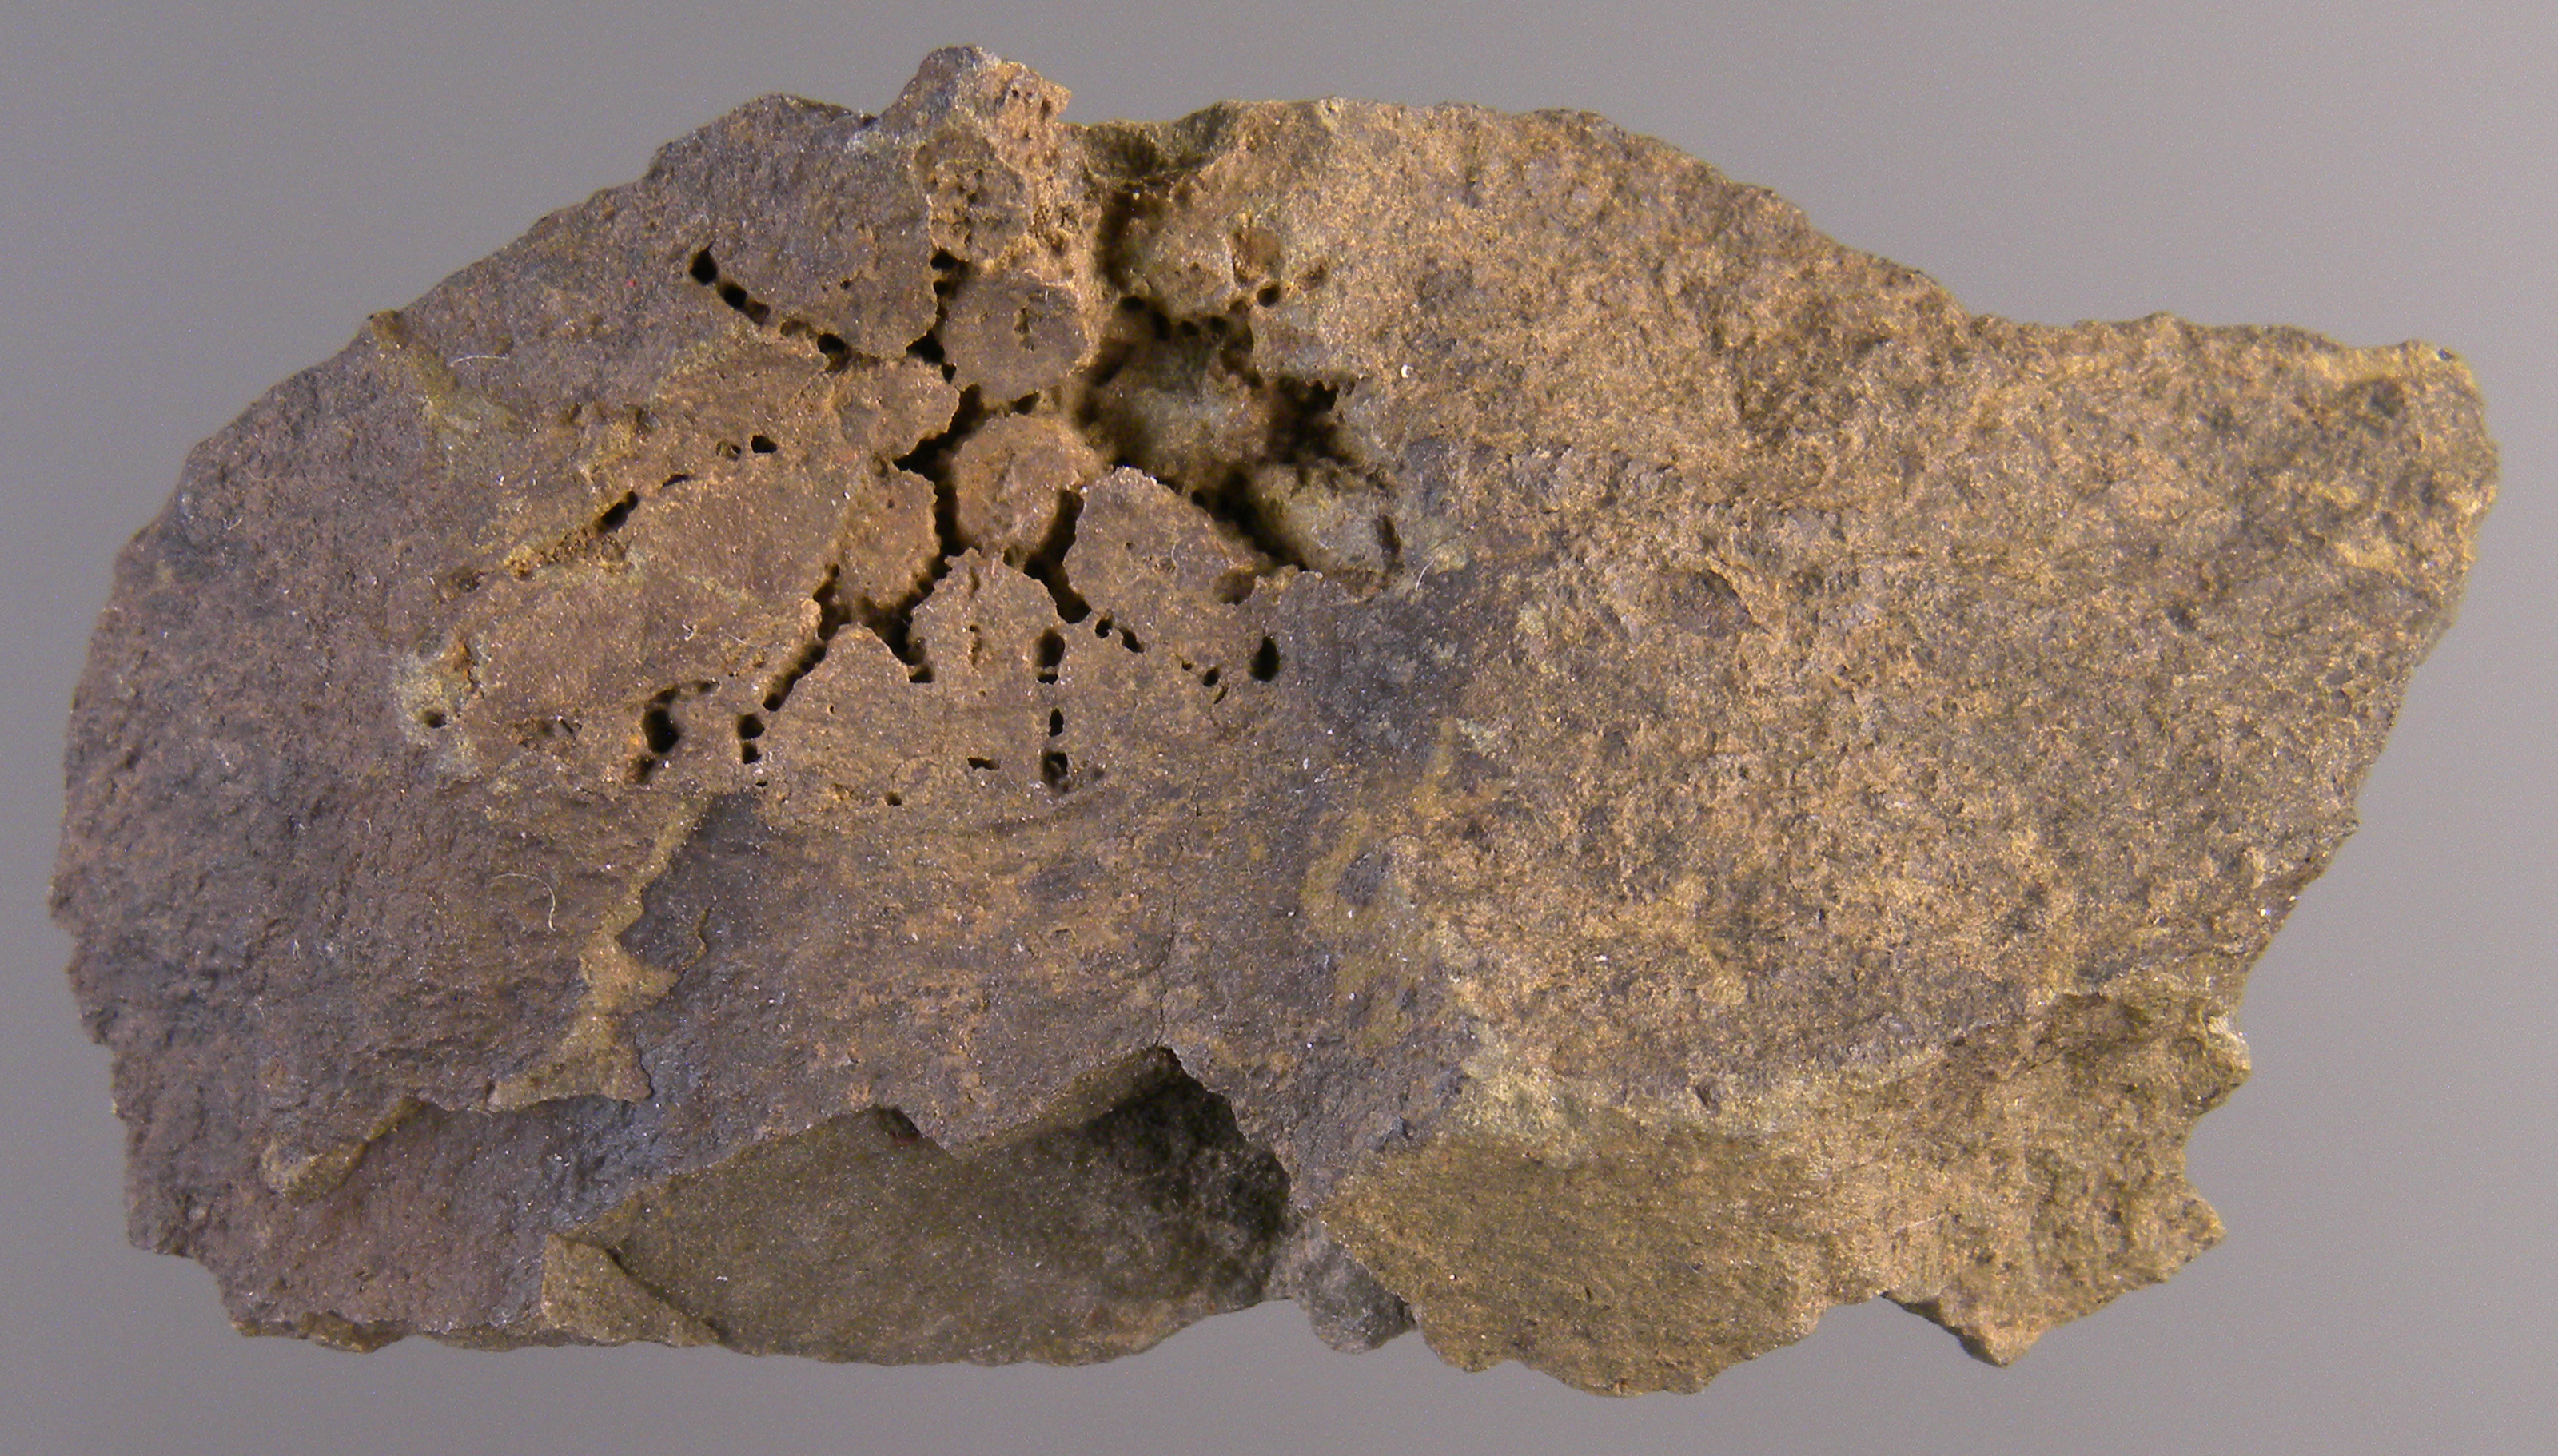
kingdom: Animalia
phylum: Cnidaria
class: Anthozoa
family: Micheliniidae
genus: Pleurodictyum
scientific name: Pleurodictyum
